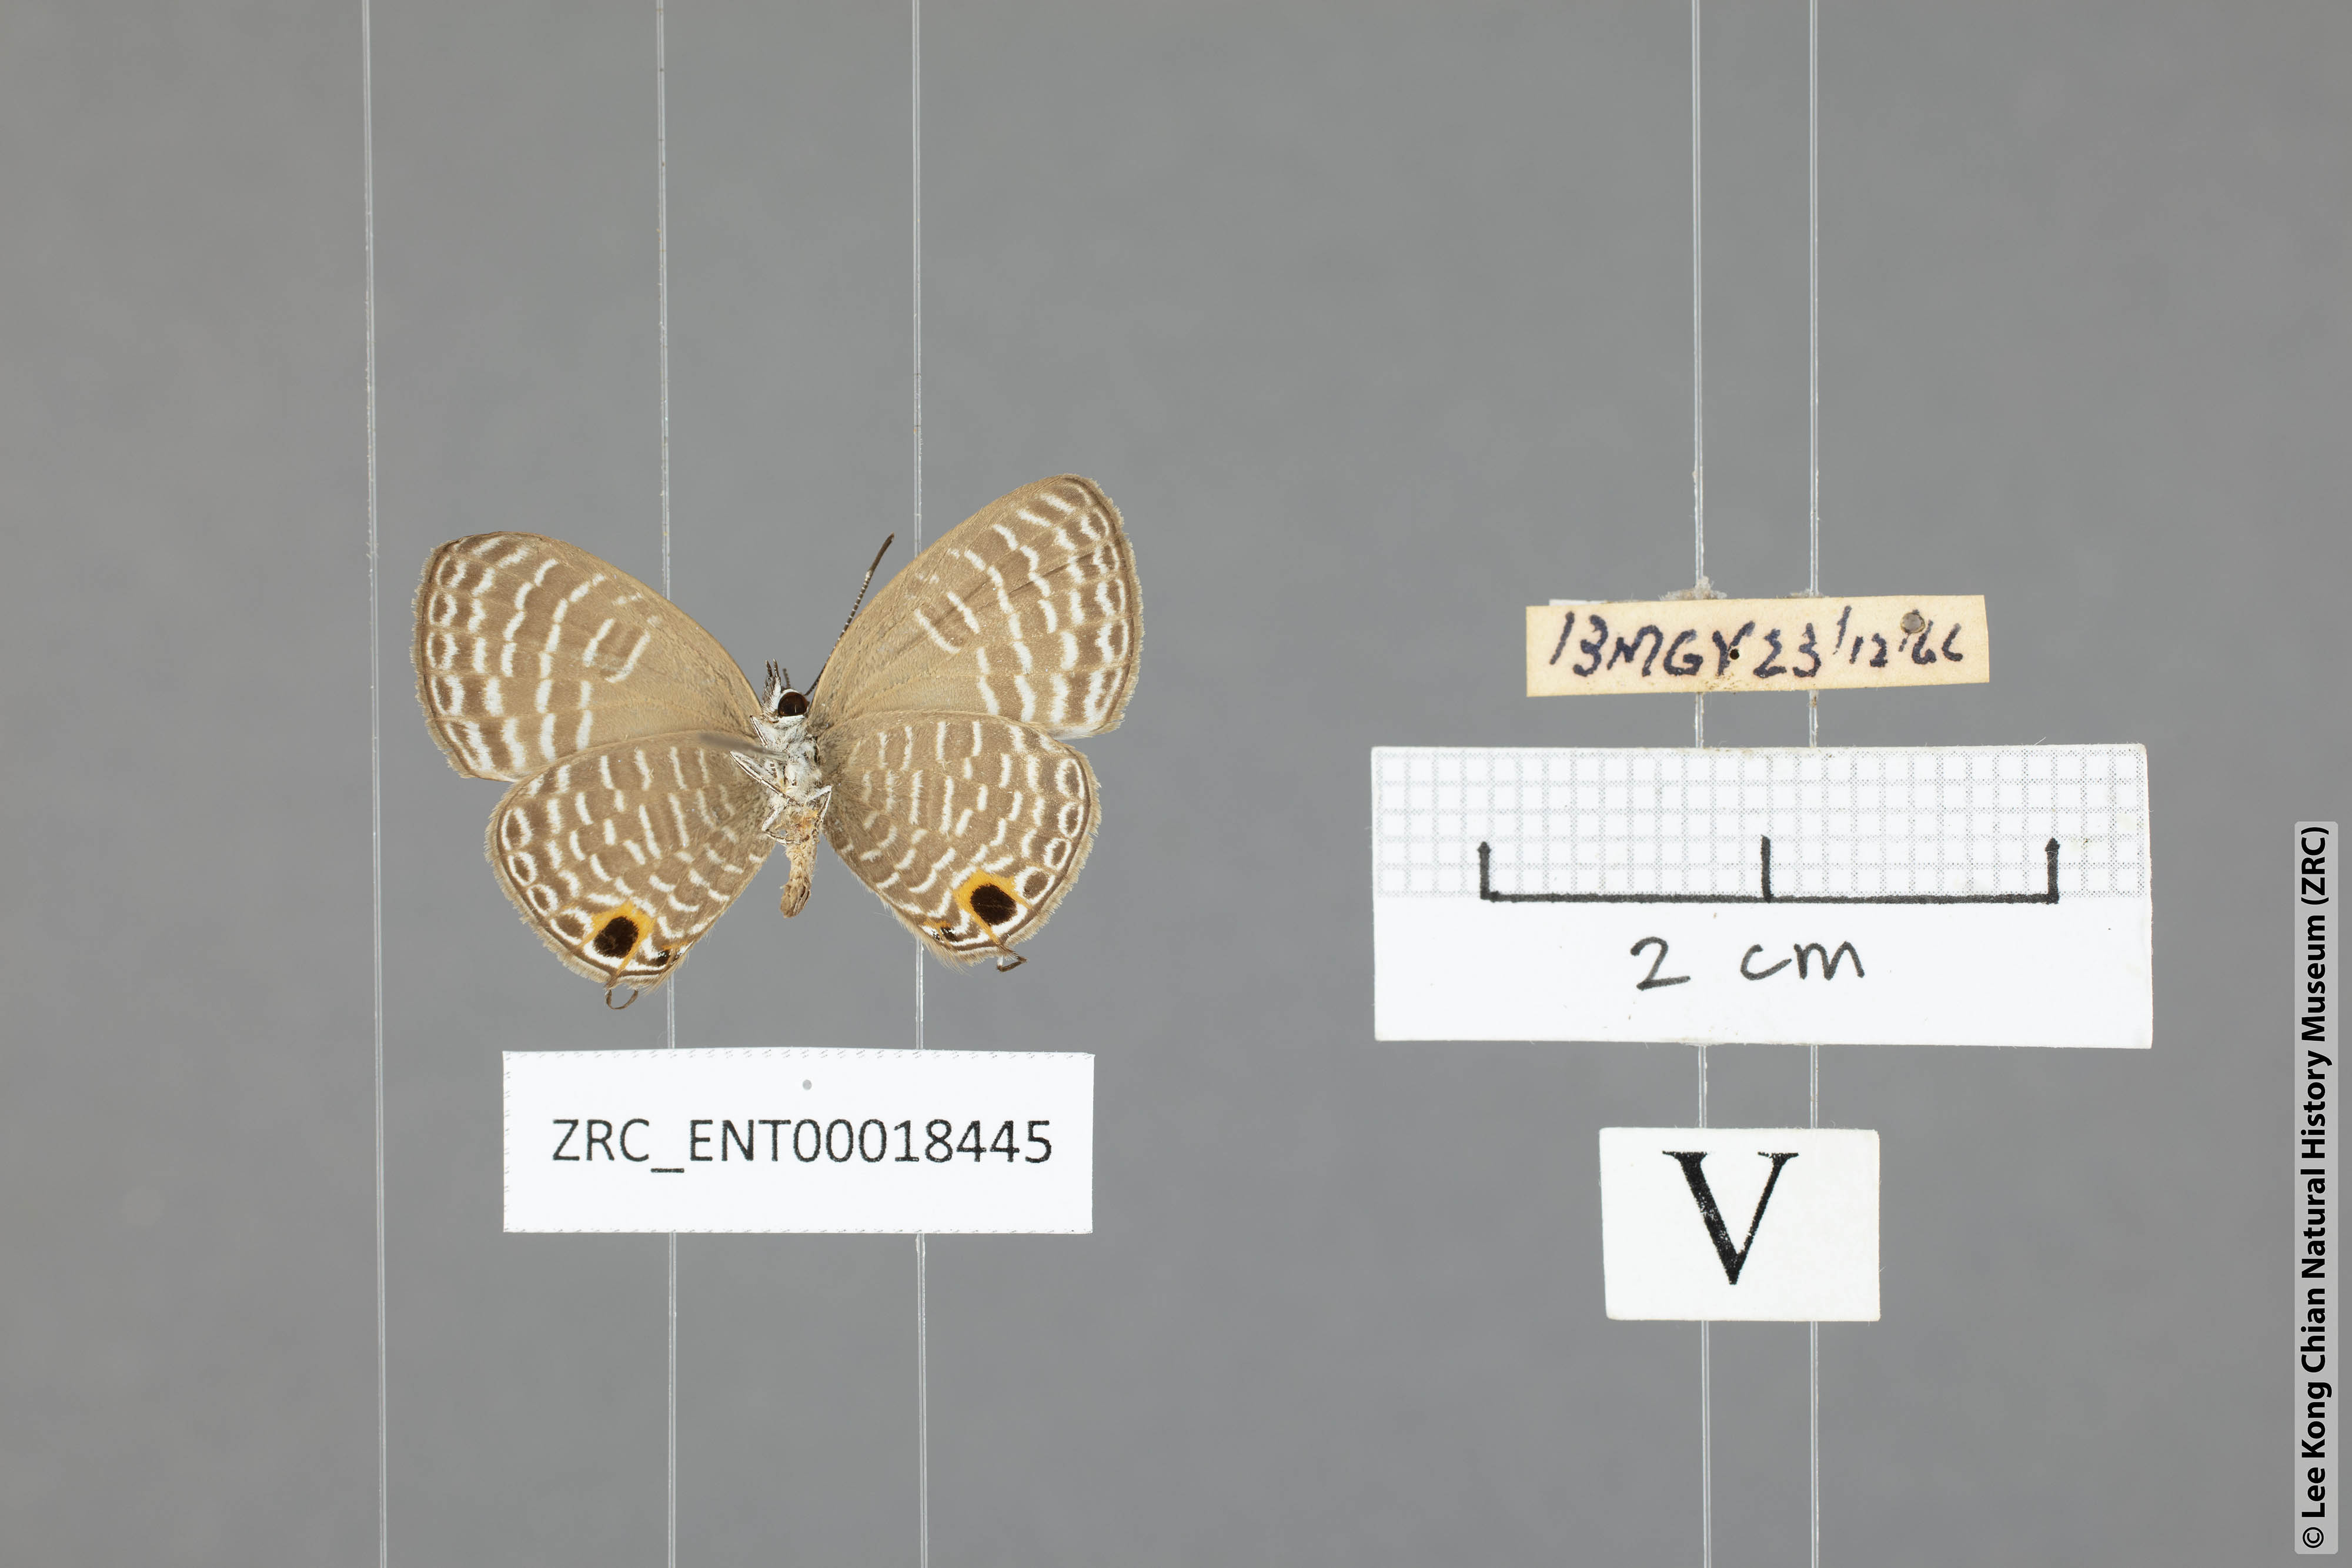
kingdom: Animalia
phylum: Arthropoda
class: Insecta
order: Lepidoptera
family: Lycaenidae
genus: Nacaduba
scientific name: Nacaduba sanaya
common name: Jewel fourline blue
